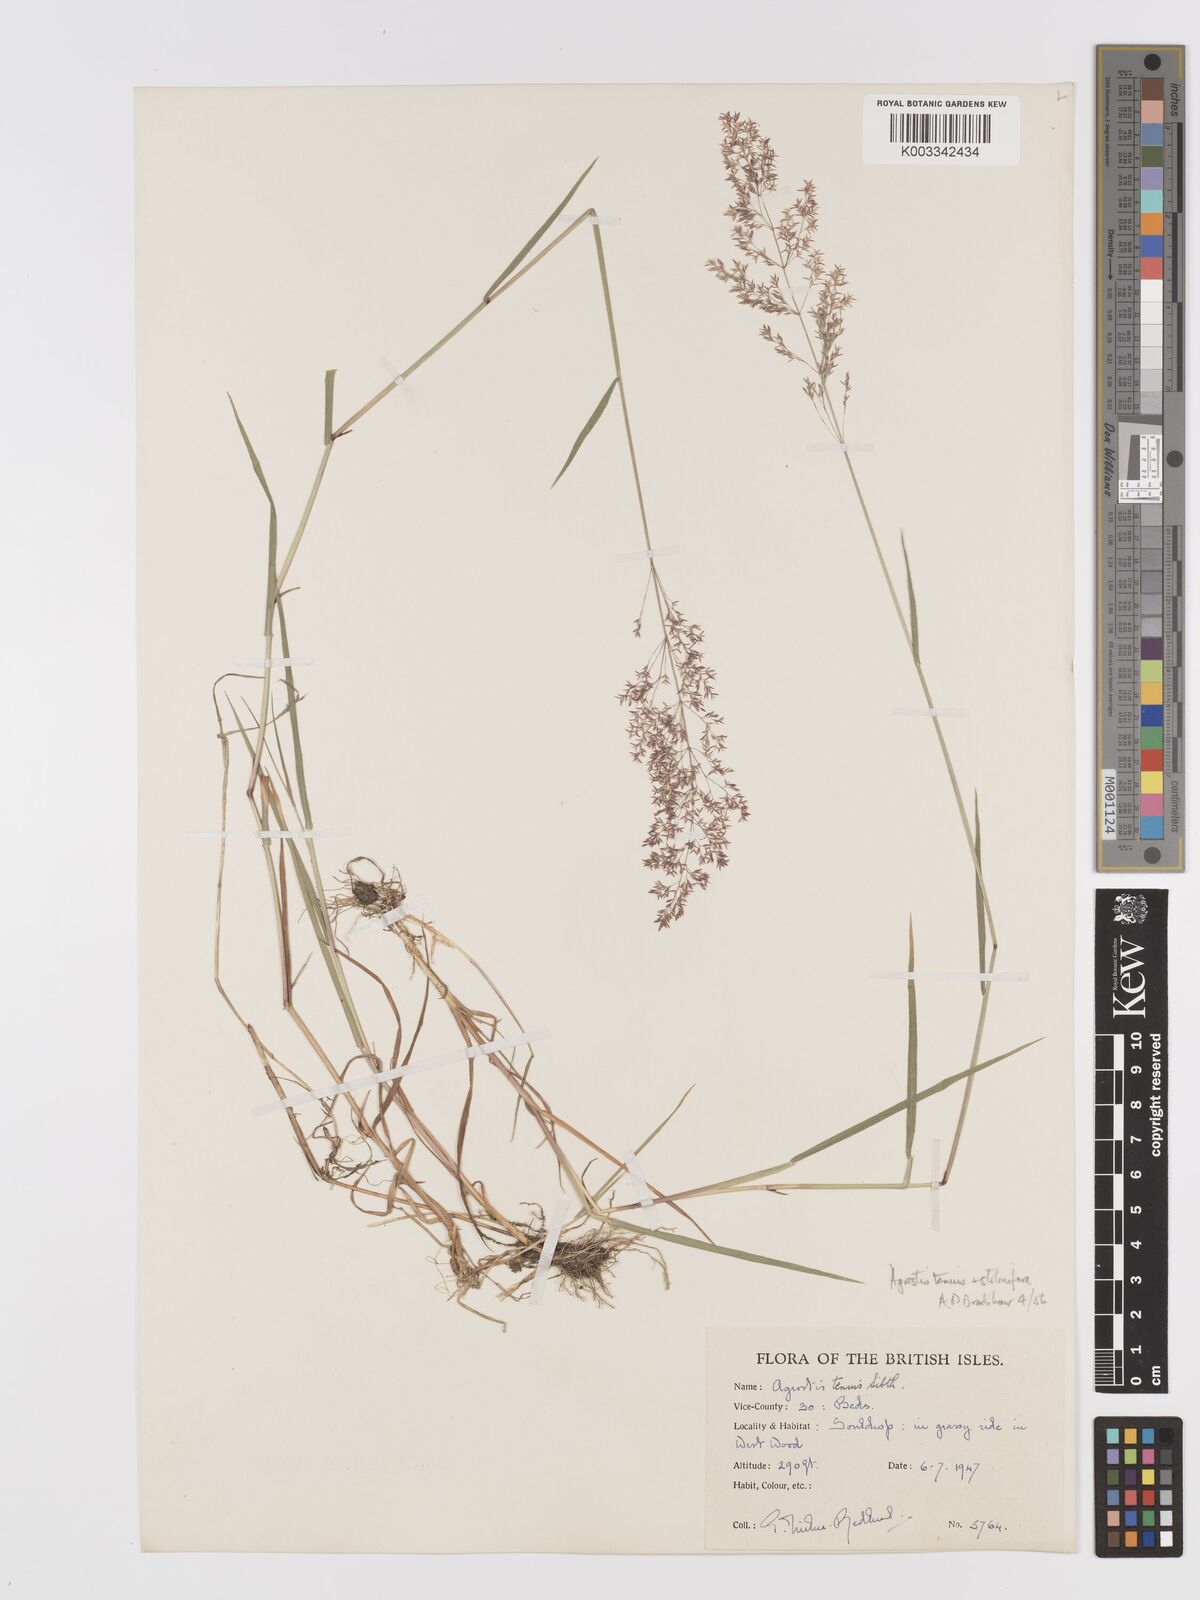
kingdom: Plantae
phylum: Tracheophyta
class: Liliopsida
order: Poales
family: Poaceae
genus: Agrostis
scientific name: Agrostis capillaris
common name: Colonial bentgrass
